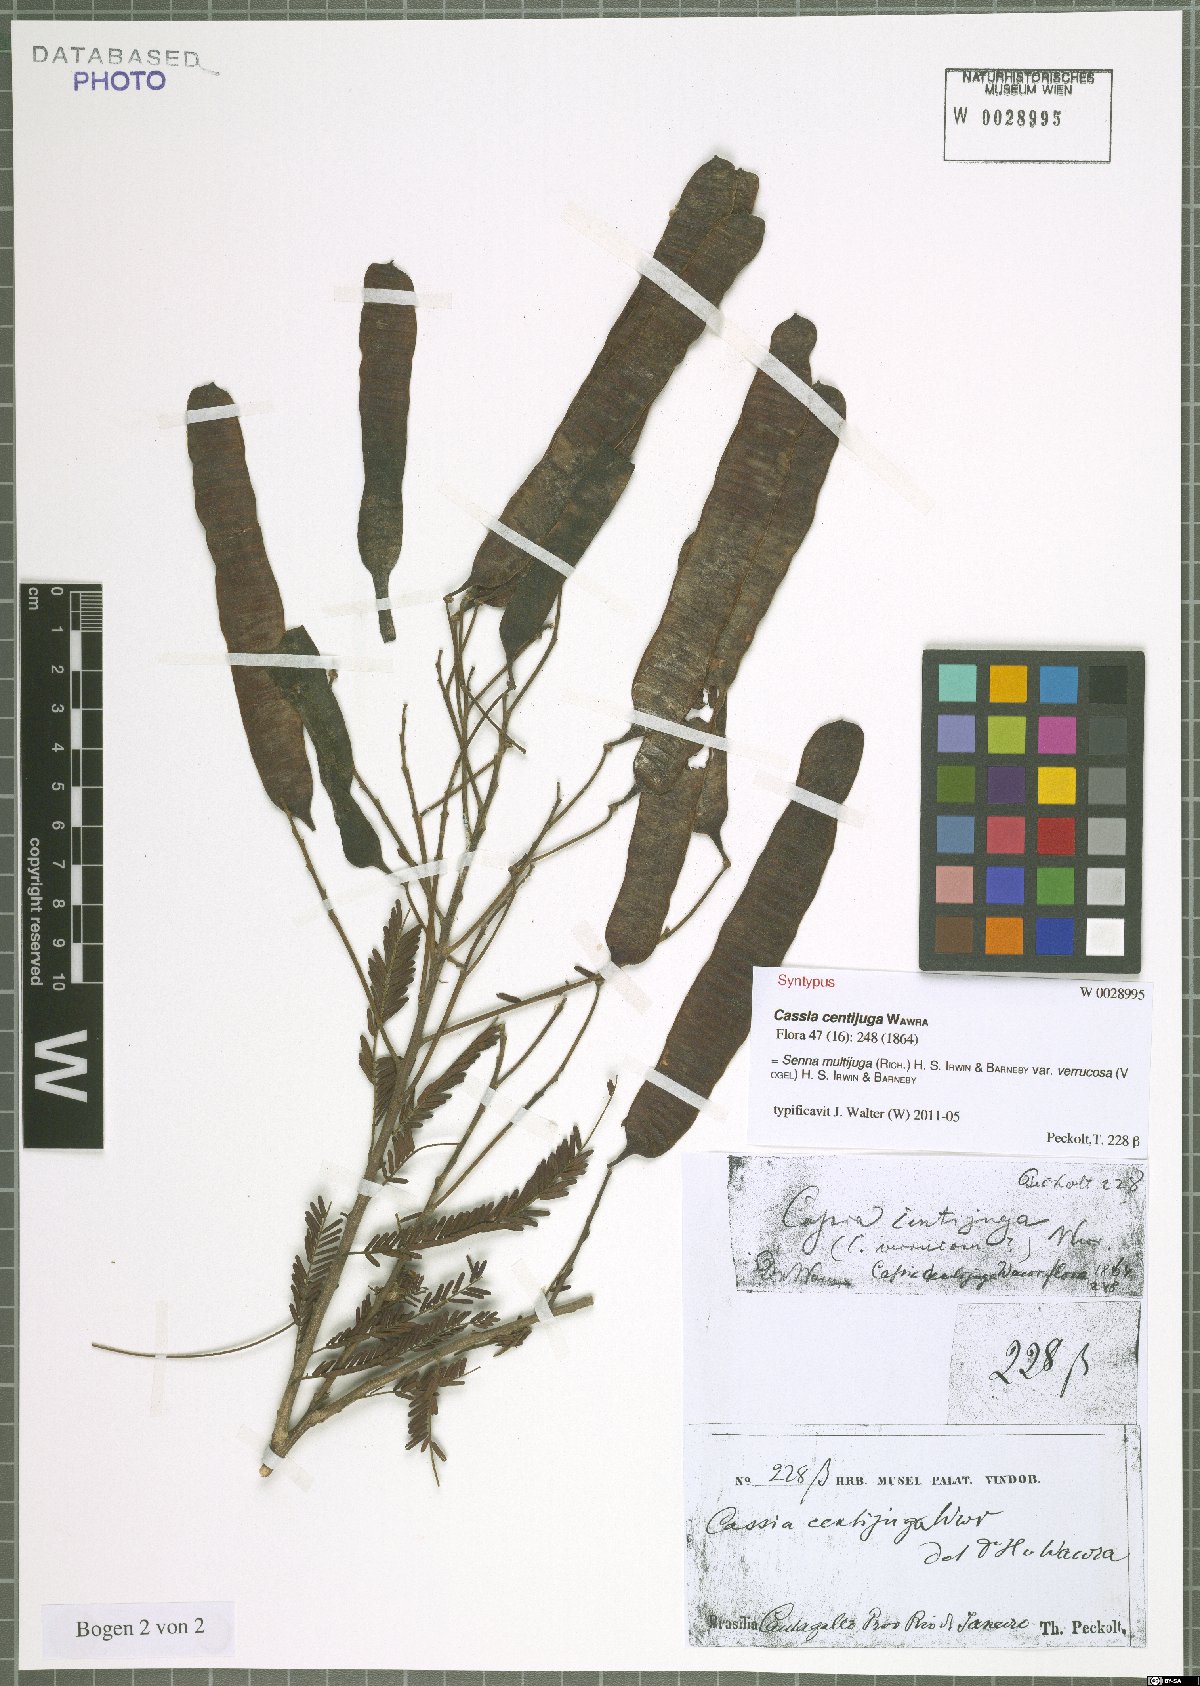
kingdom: Plantae
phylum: Tracheophyta
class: Magnoliopsida
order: Fabales
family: Fabaceae
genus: Senna
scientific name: Senna multijuga
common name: False sicklepod
